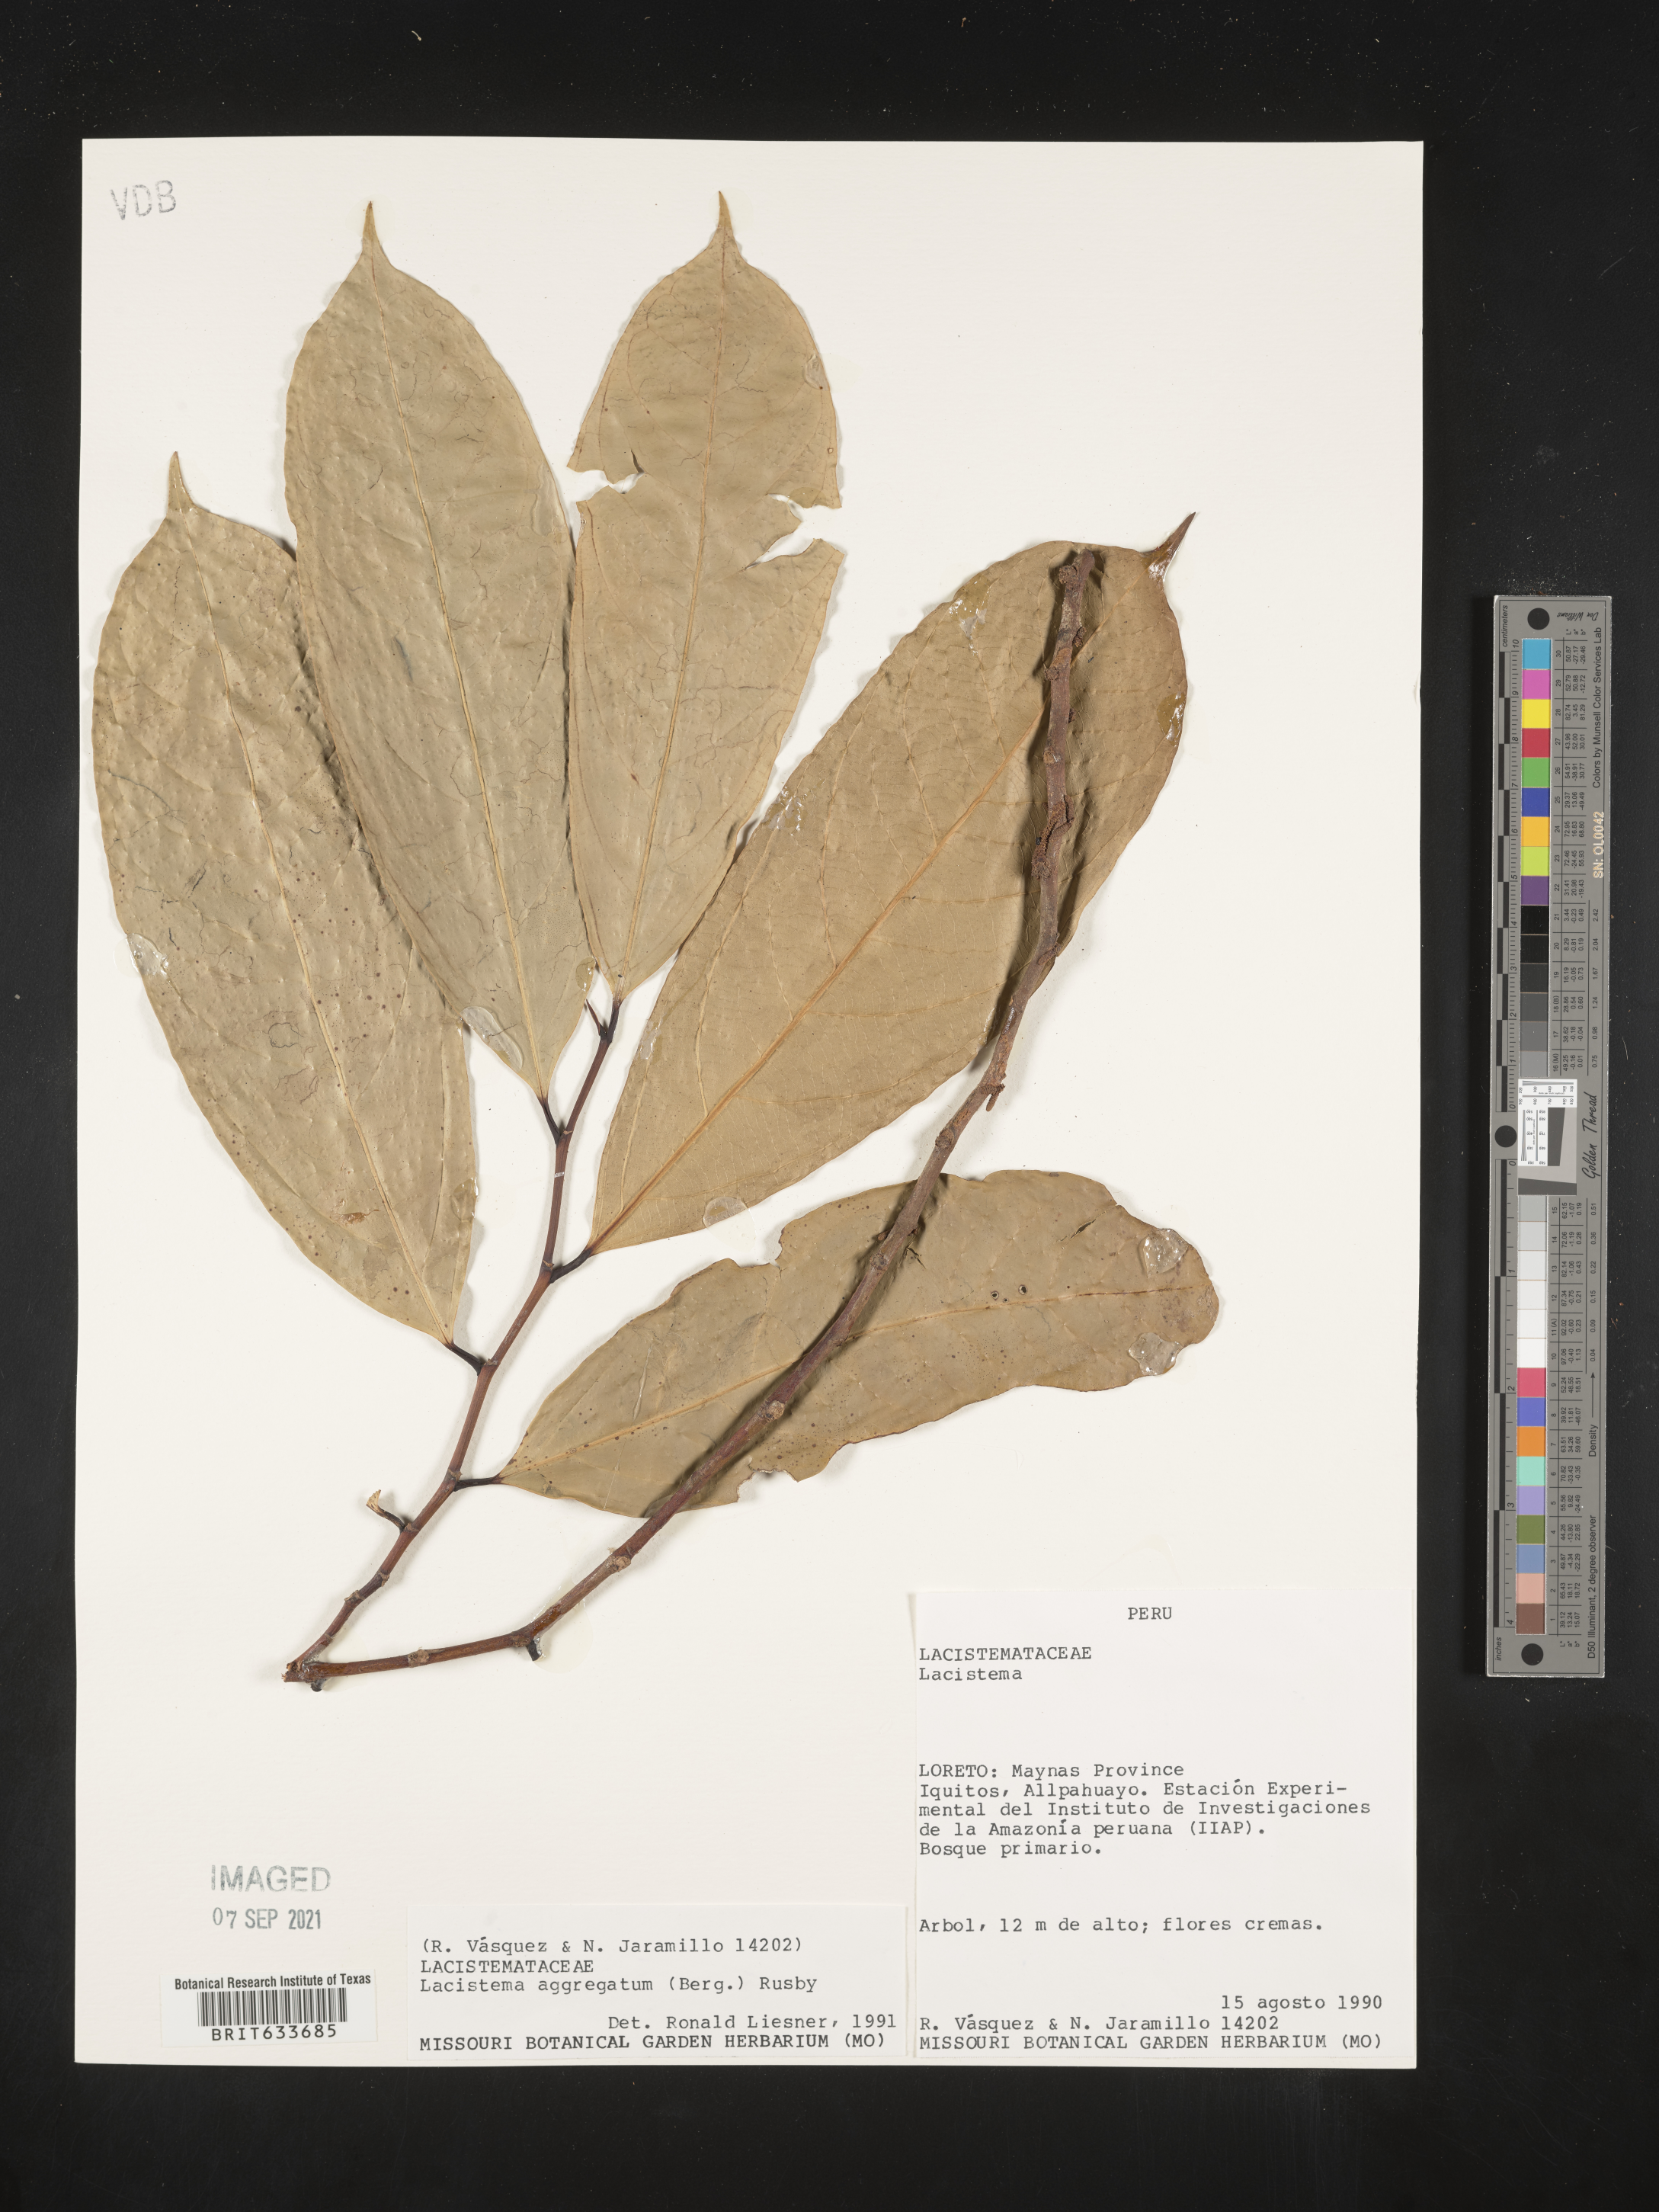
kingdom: Plantae
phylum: Tracheophyta
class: Magnoliopsida
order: Malpighiales
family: Lacistemataceae
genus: Lacistema
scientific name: Lacistema
